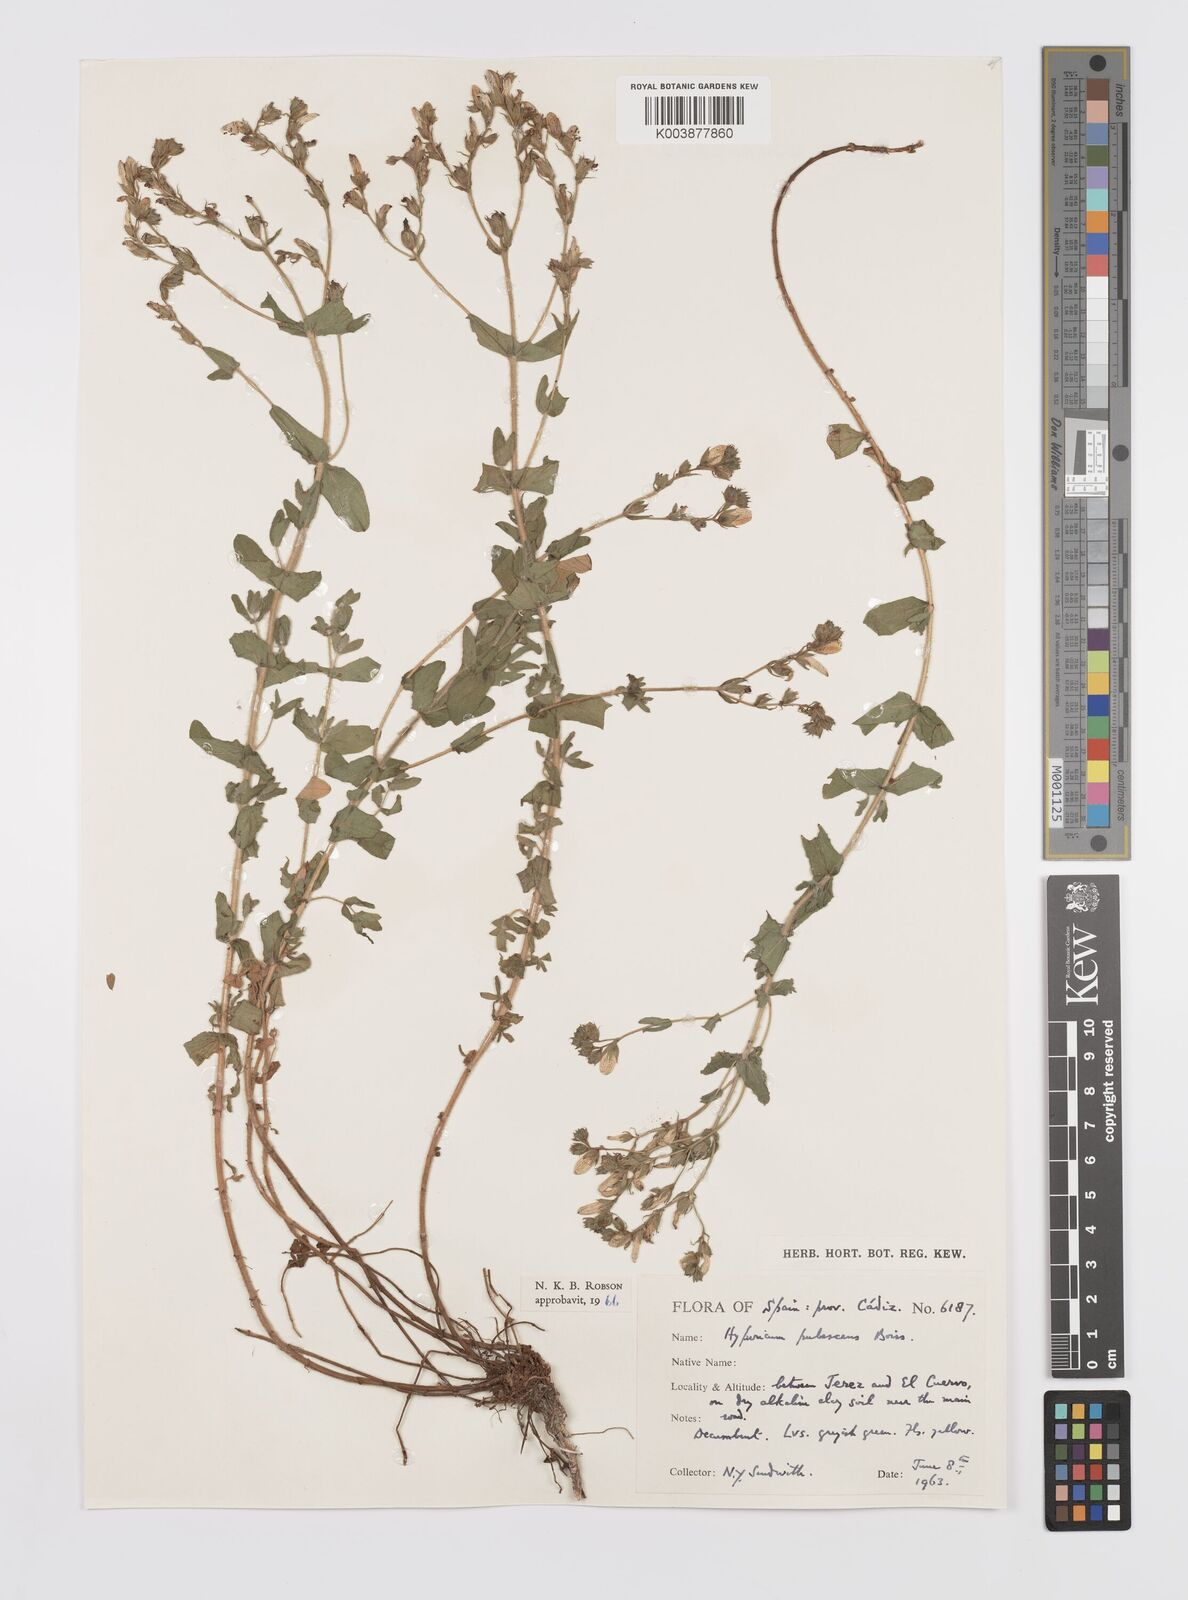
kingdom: Plantae
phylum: Tracheophyta
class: Magnoliopsida
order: Malpighiales
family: Hypericaceae
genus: Hypericum
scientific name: Hypericum pubescens
